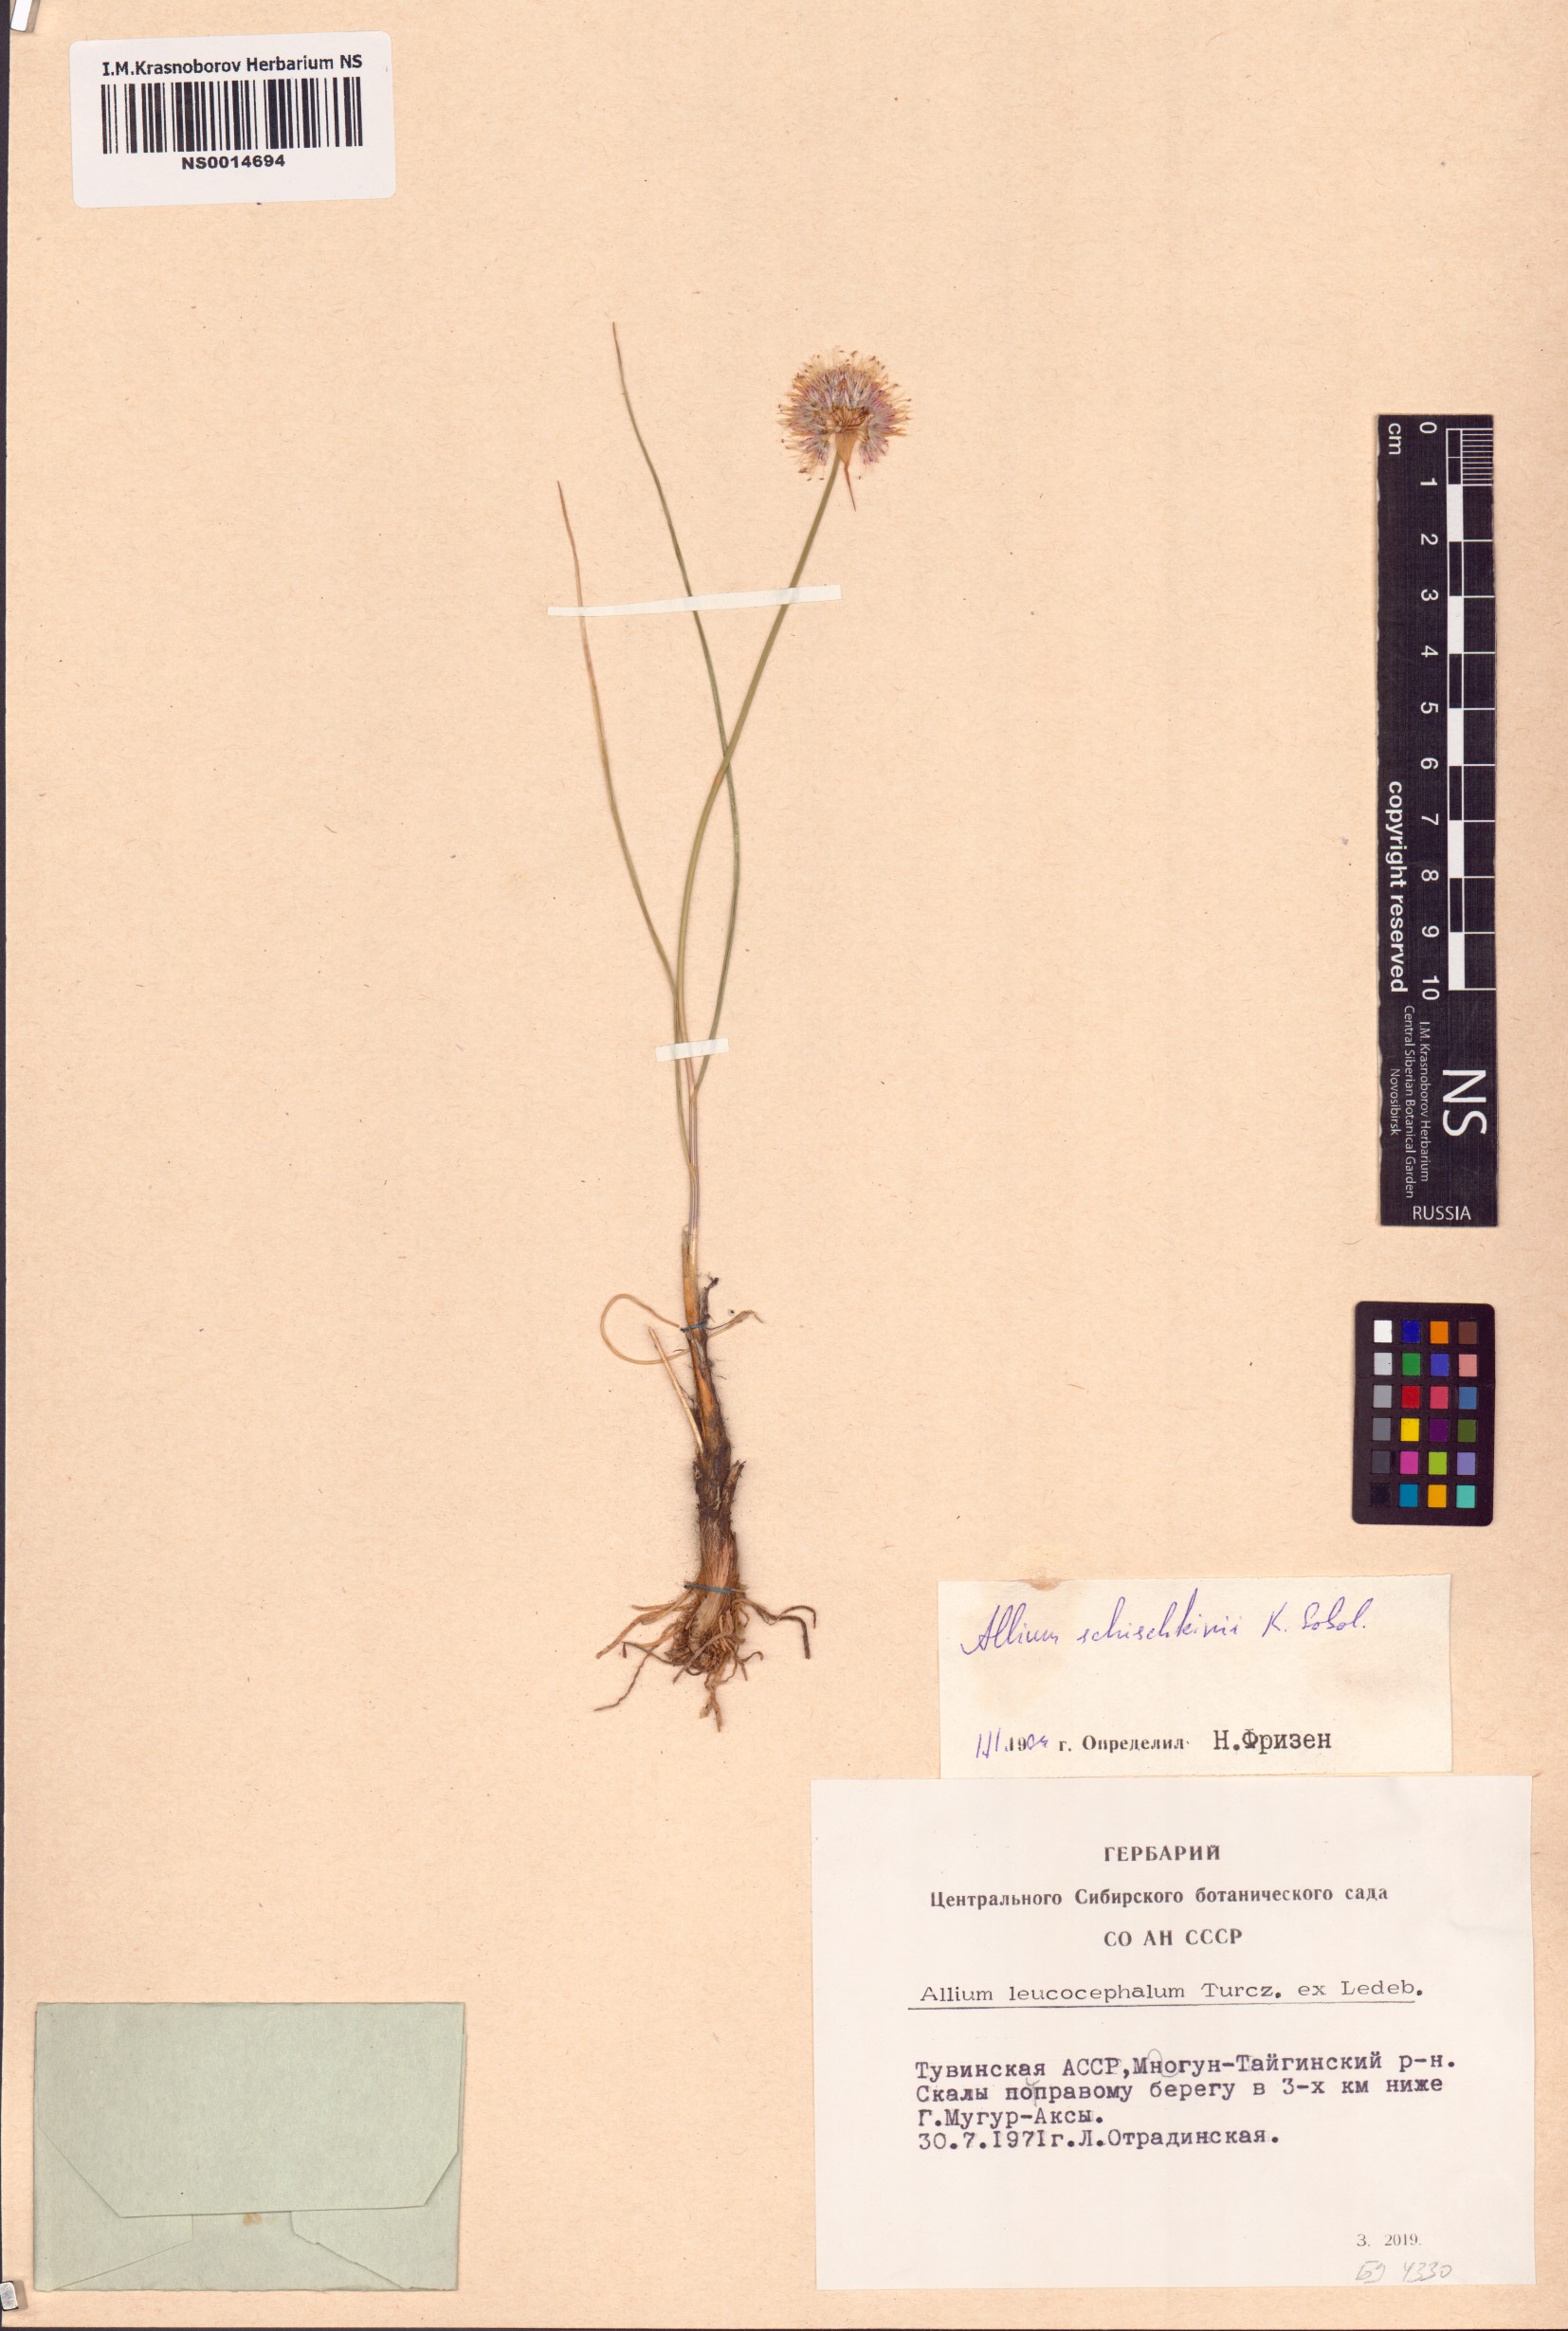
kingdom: Plantae
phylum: Tracheophyta
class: Liliopsida
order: Asparagales
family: Amaryllidaceae
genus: Allium
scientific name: Allium schischkinii
